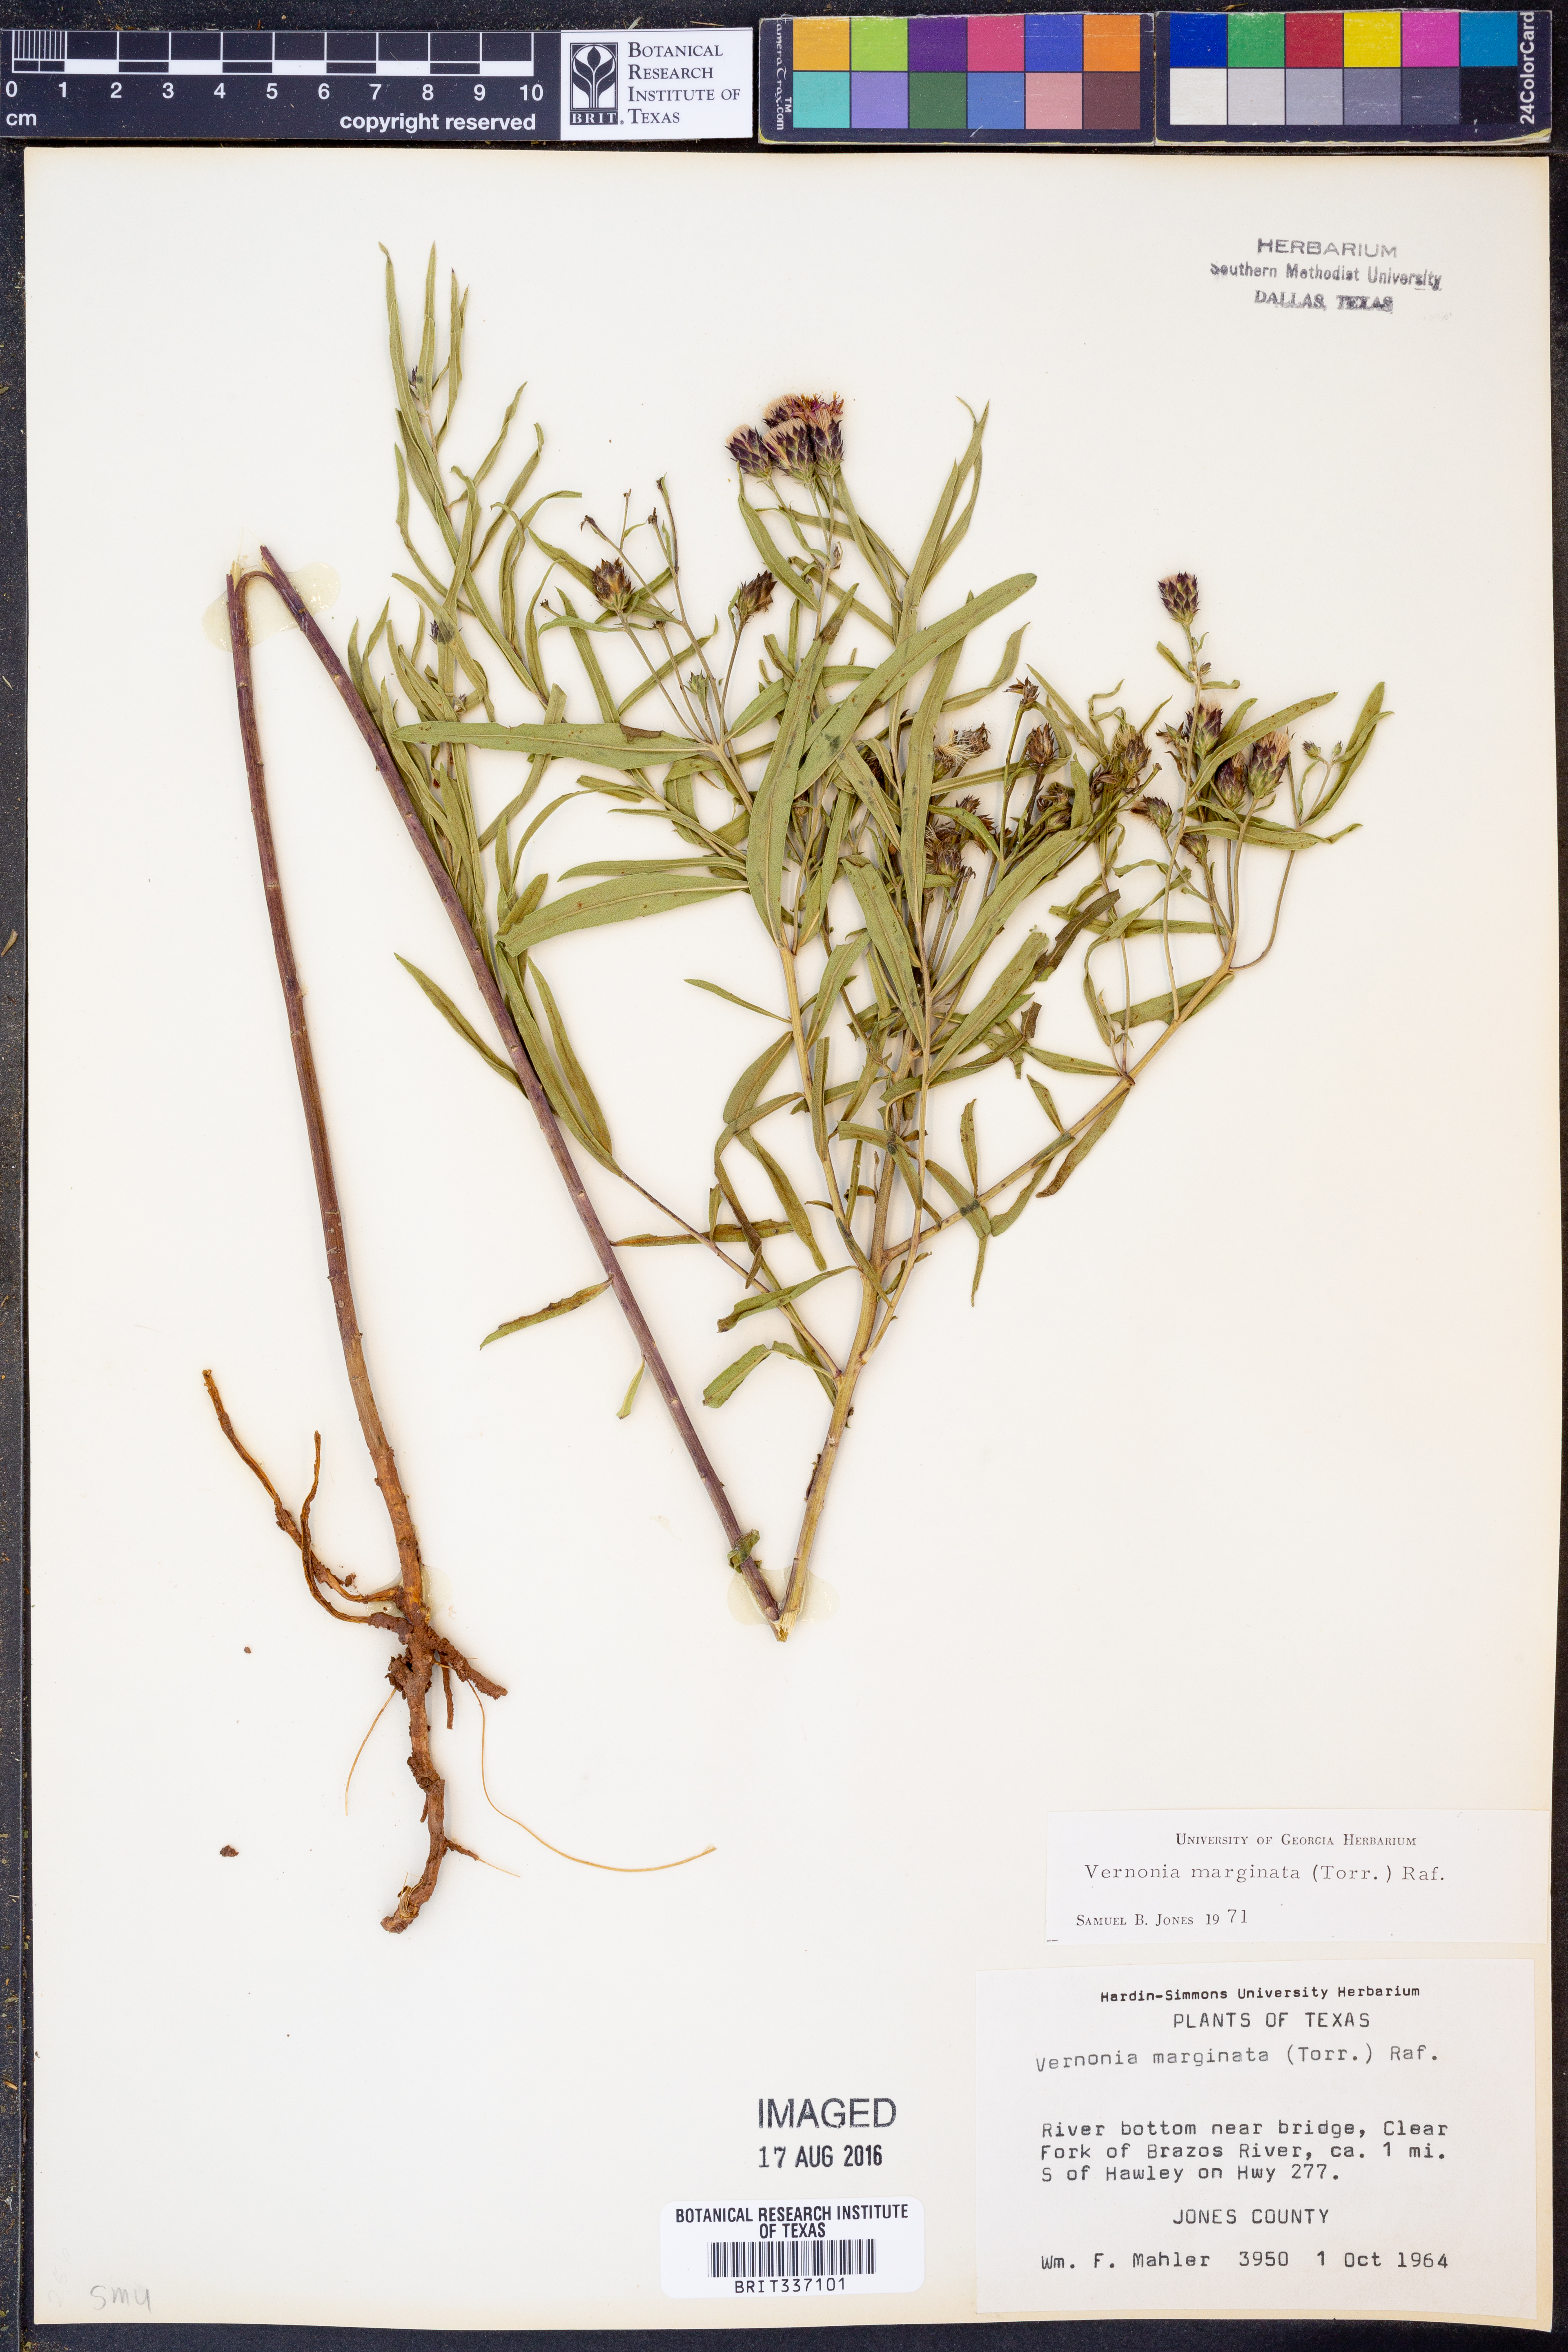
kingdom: Plantae
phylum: Tracheophyta
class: Magnoliopsida
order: Asterales
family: Asteraceae
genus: Vernonia
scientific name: Vernonia marginata
